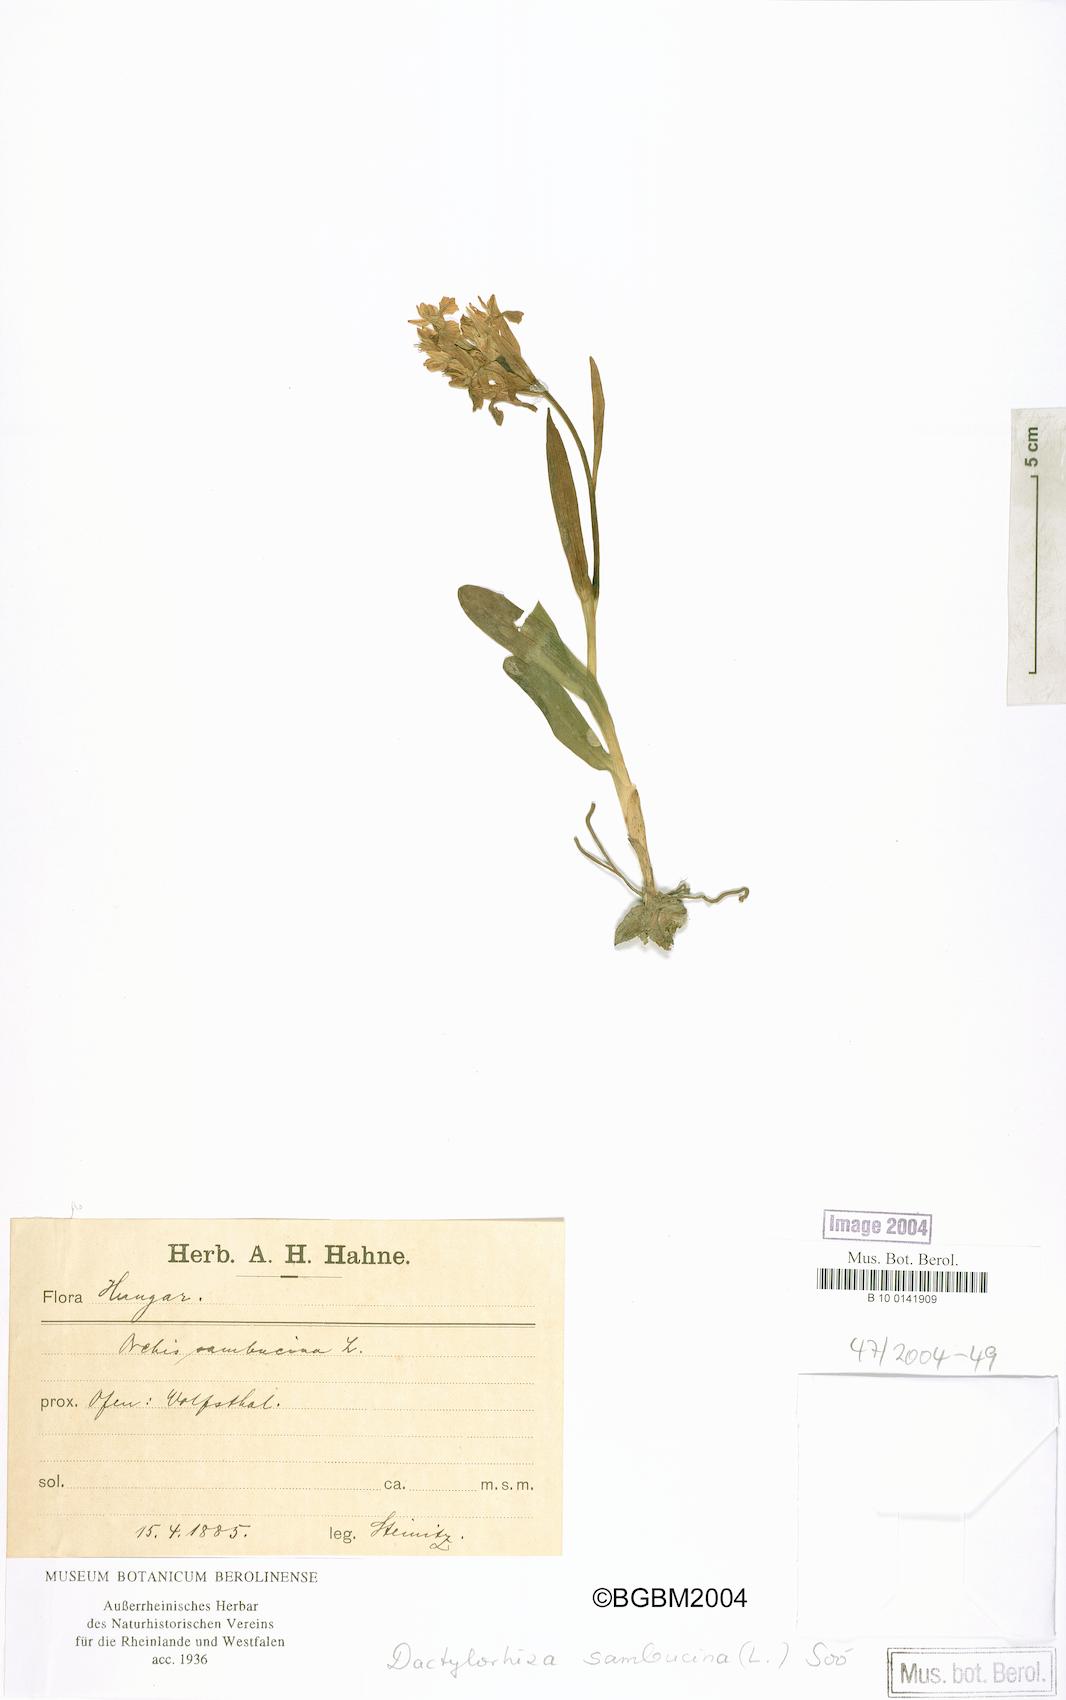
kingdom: Plantae
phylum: Tracheophyta
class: Liliopsida
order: Asparagales
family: Orchidaceae
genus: Dactylorhiza
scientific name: Dactylorhiza sambucina
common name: Elder-flowered orchid
